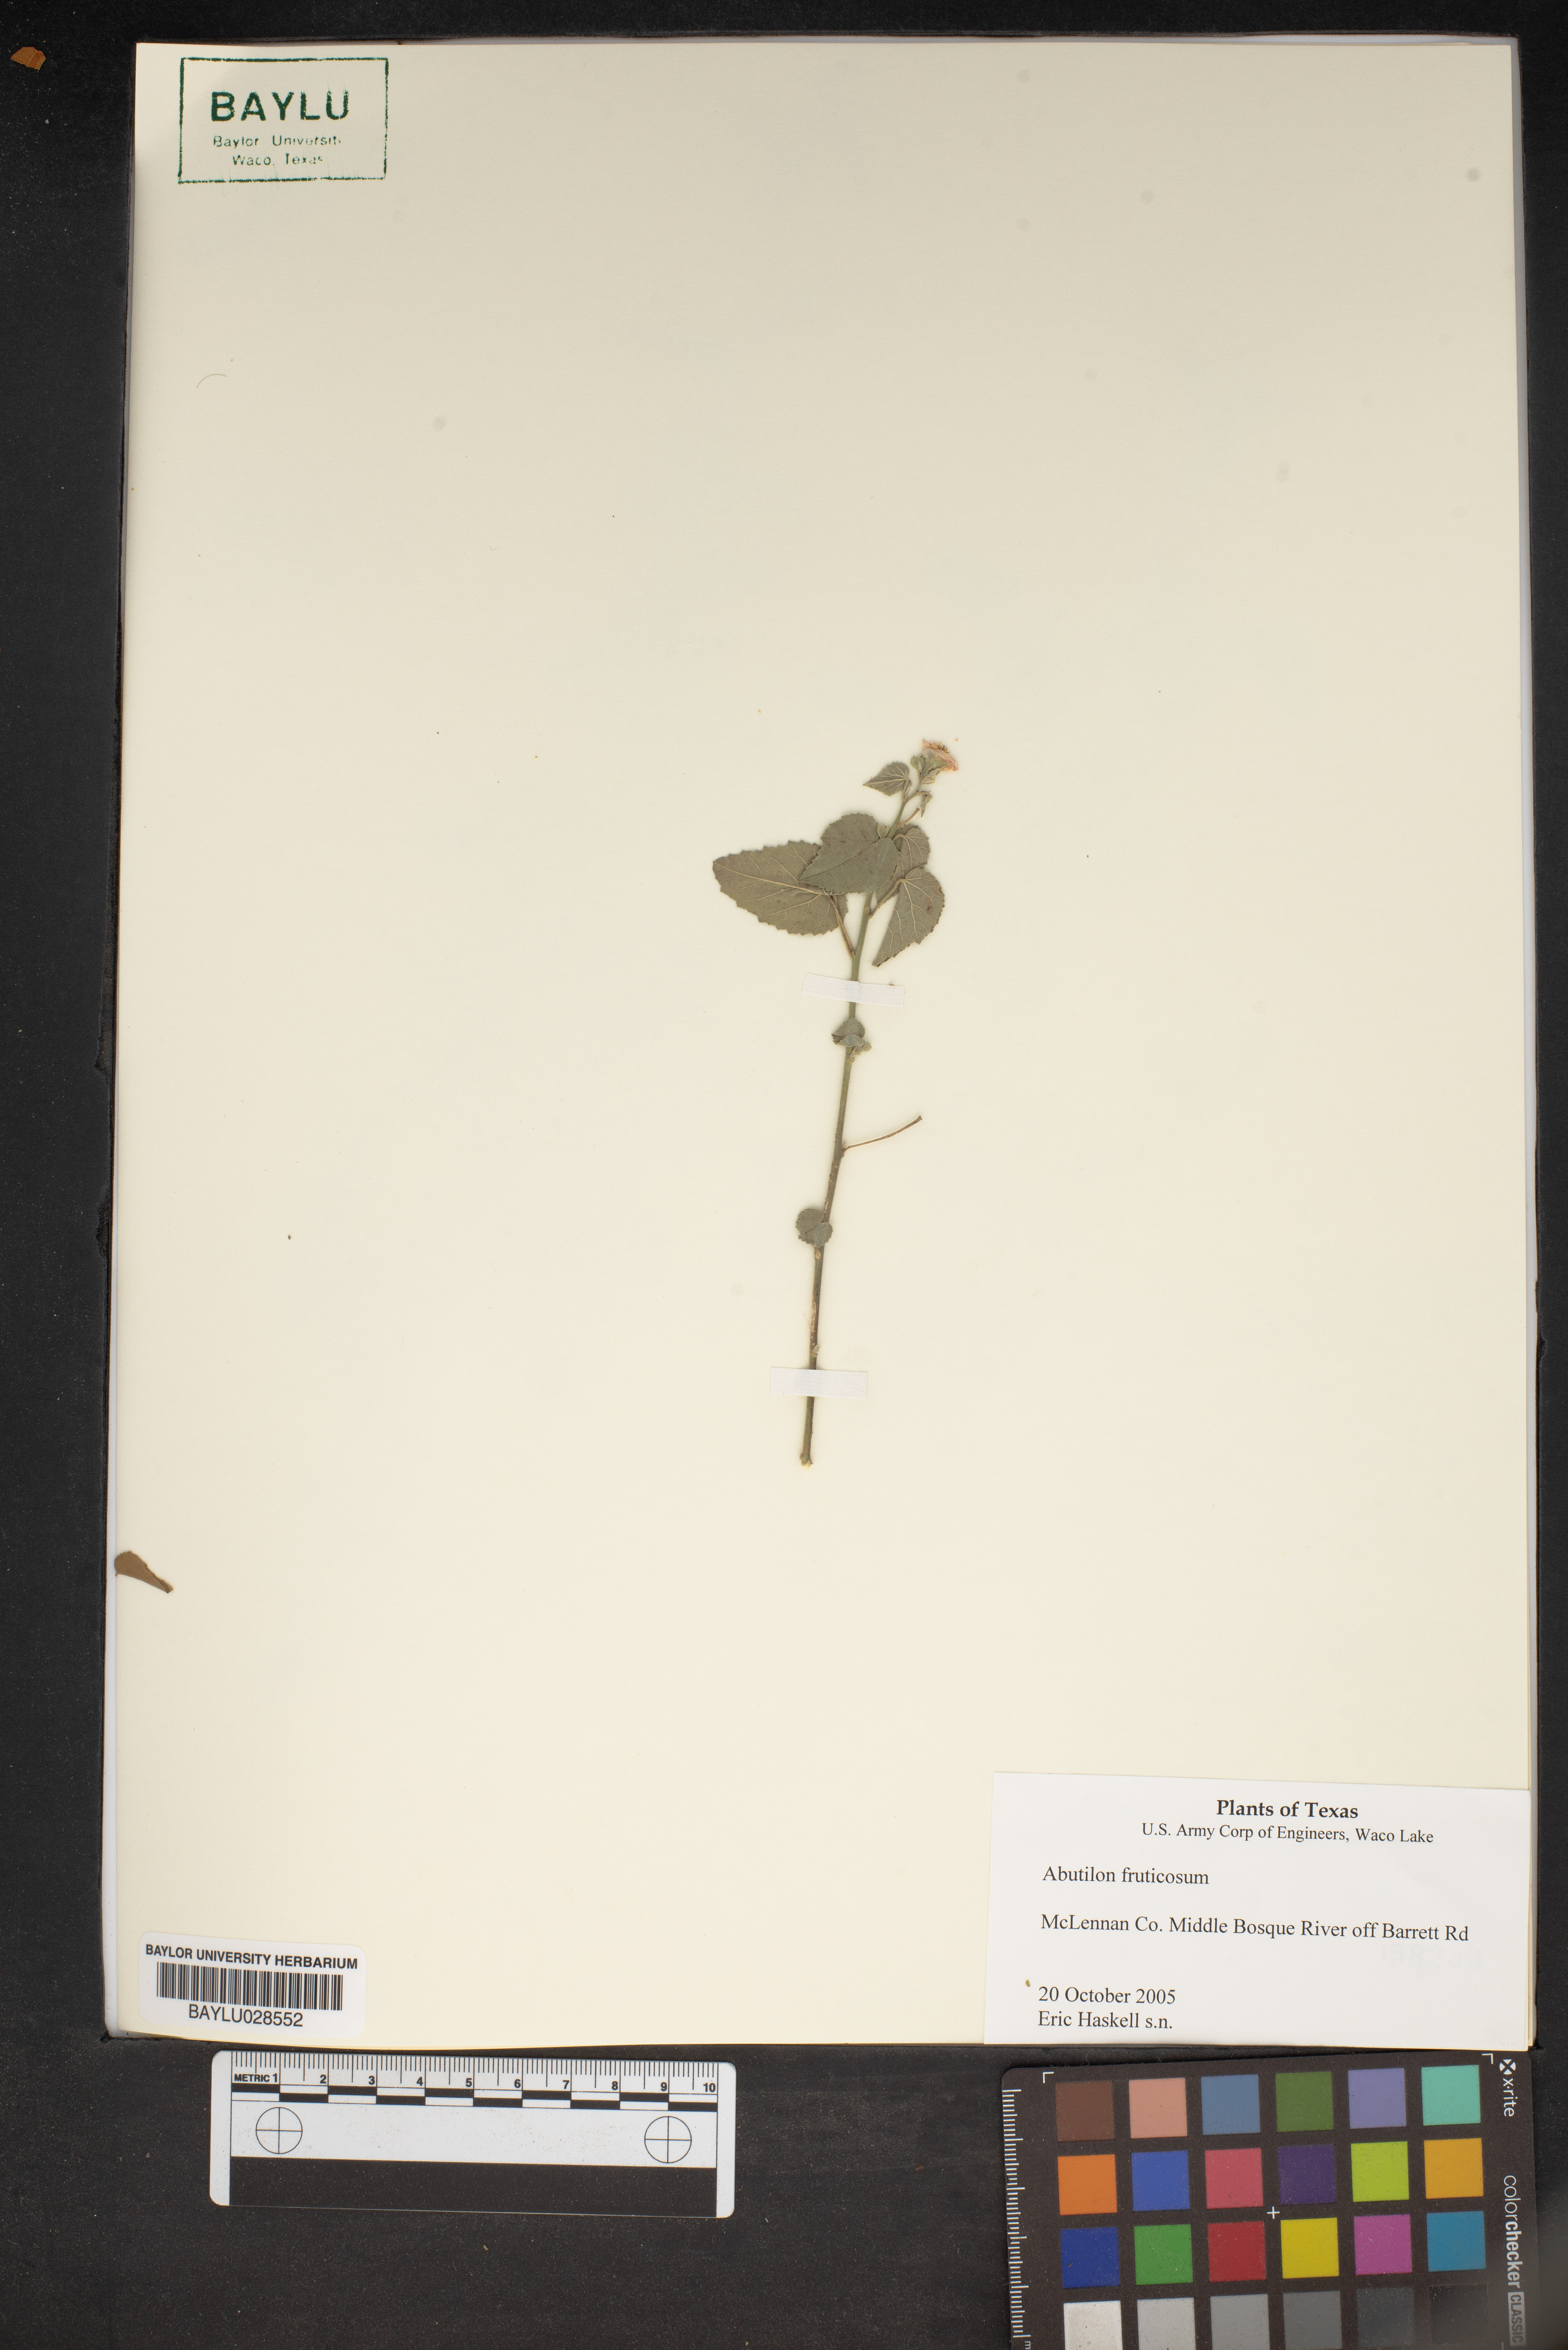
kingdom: Plantae
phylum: Tracheophyta
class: Magnoliopsida
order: Malvales
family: Malvaceae
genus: Abutilon
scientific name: Abutilon fruticosum
